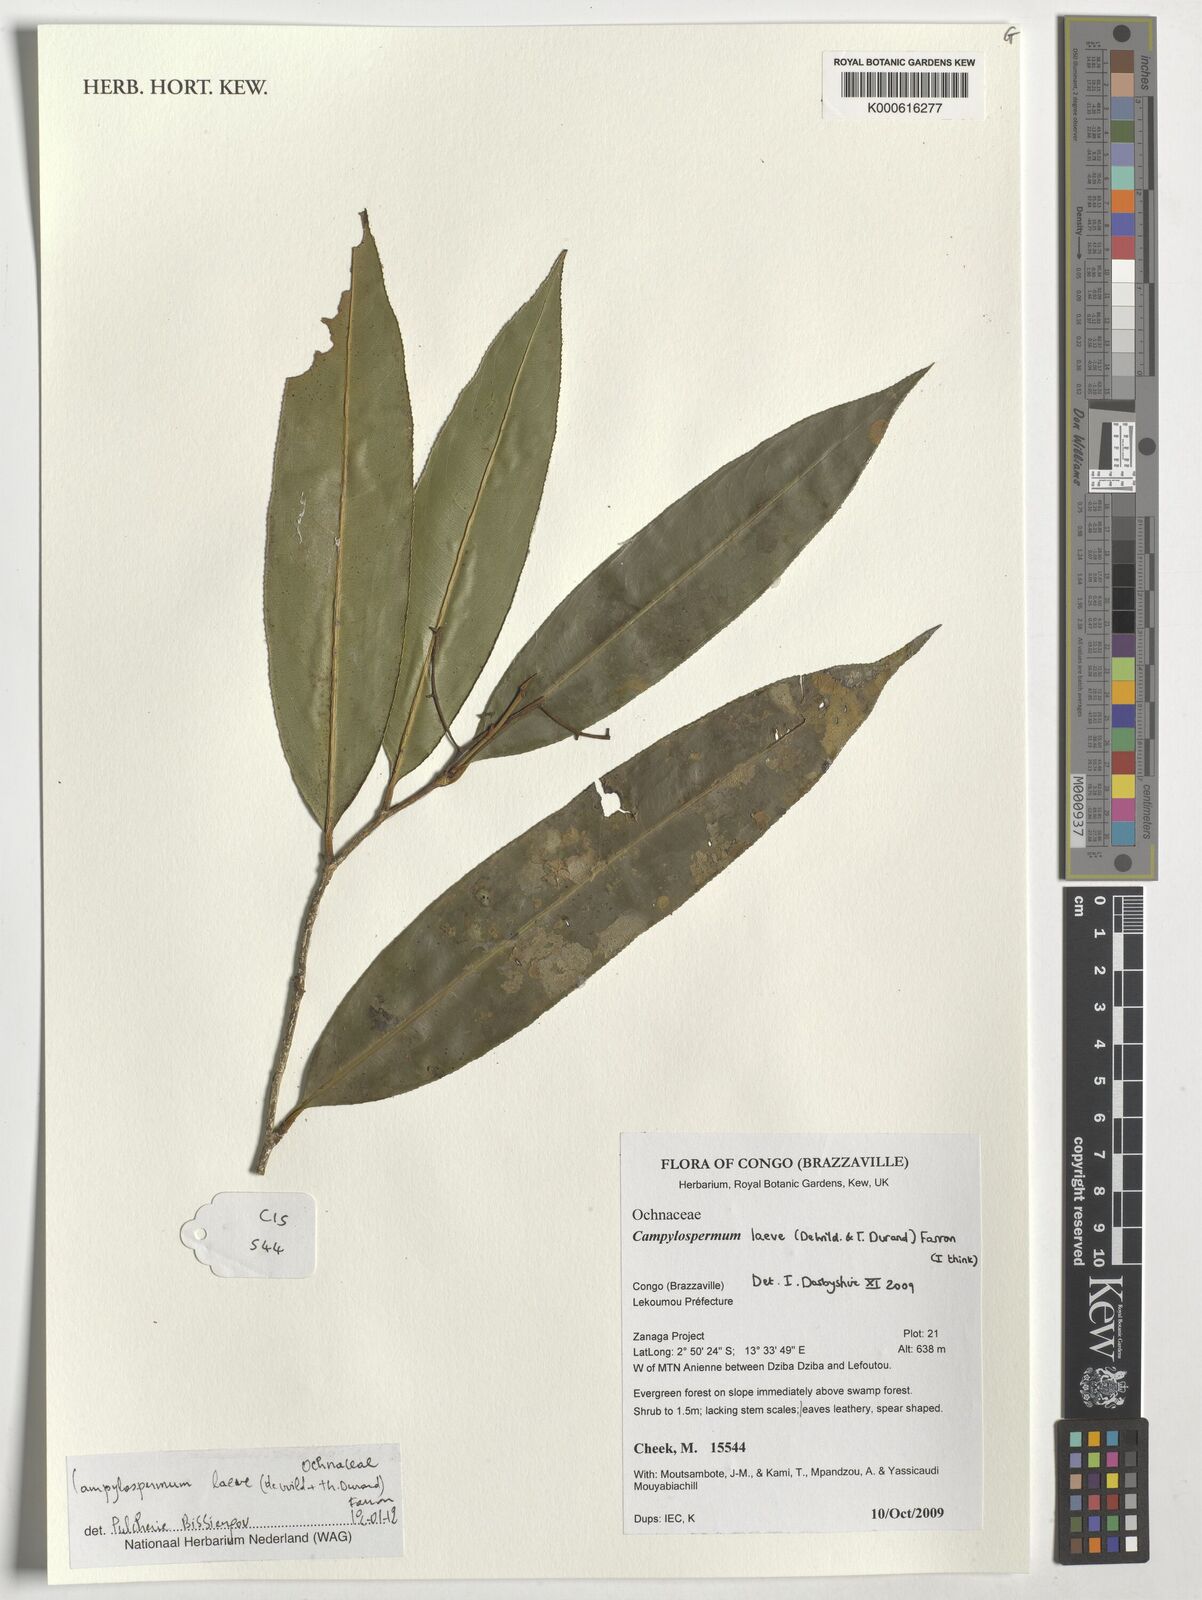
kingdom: Plantae
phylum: Tracheophyta
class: Magnoliopsida
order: Malpighiales
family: Ochnaceae
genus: Campylospermum
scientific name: Campylospermum laeve
